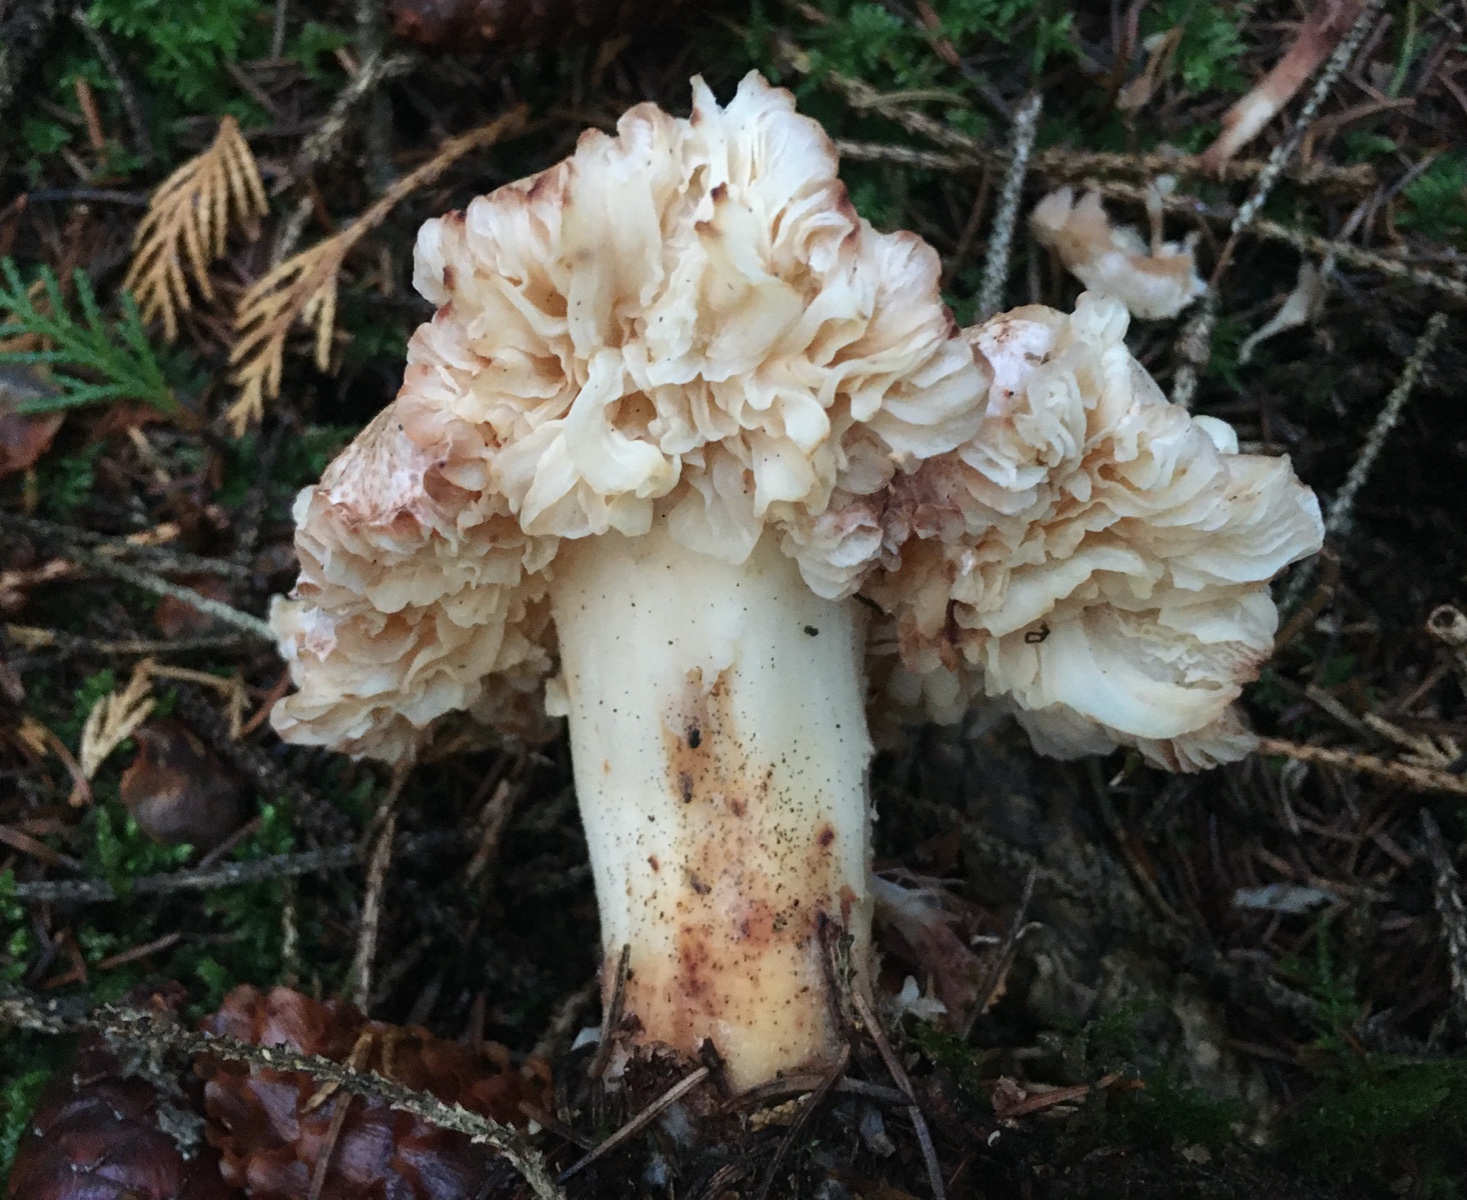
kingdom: Fungi
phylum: Basidiomycota
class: Agaricomycetes
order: Agaricales
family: Omphalotaceae
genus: Rhodocollybia
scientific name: Rhodocollybia maculata
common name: plettet fladhat
